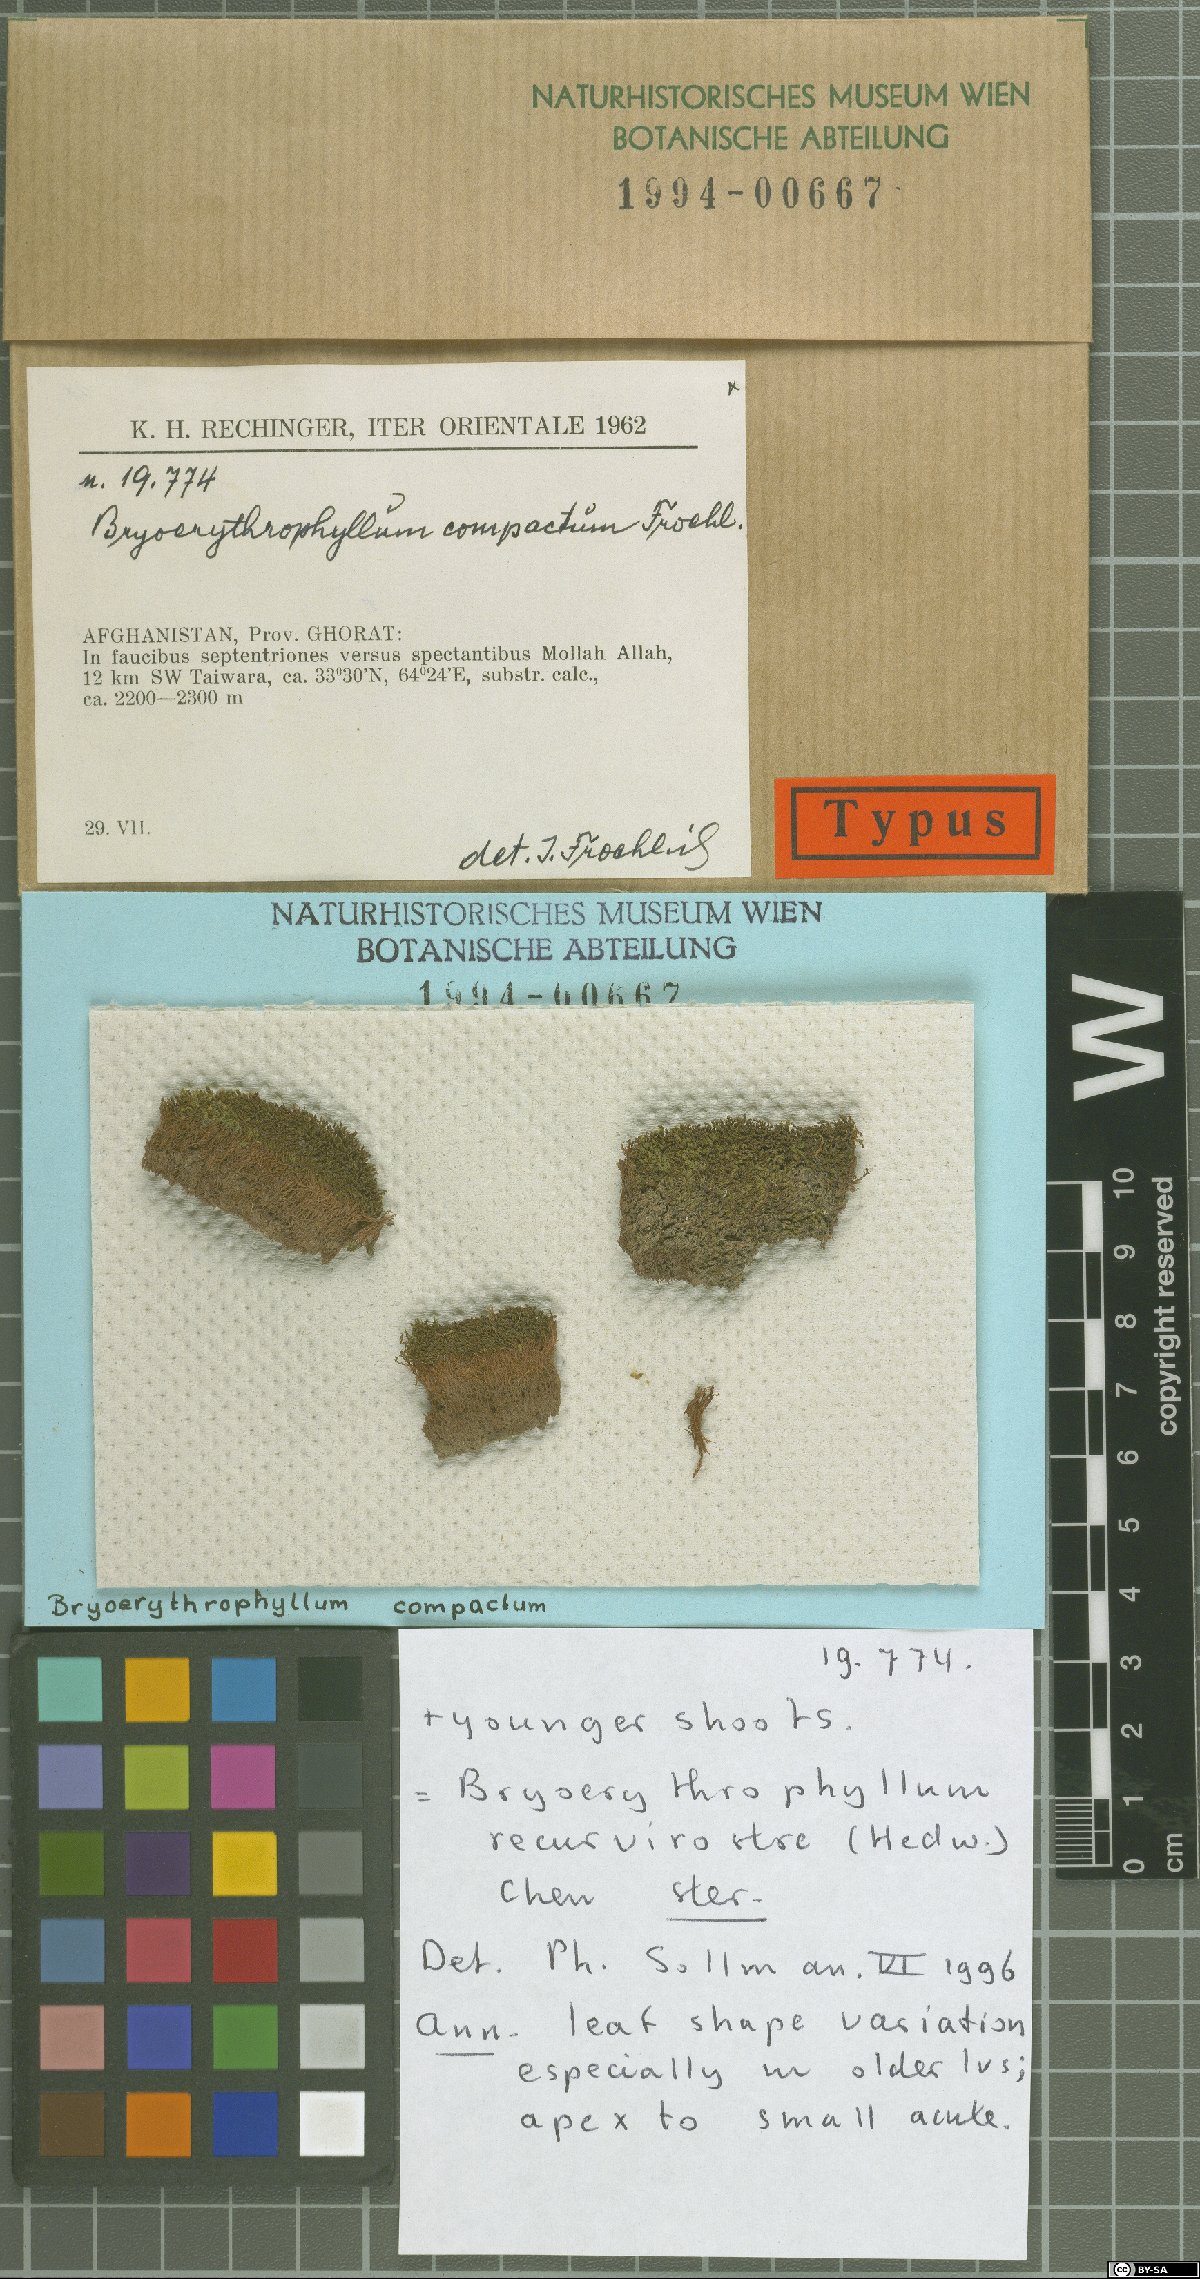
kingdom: Plantae
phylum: Bryophyta
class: Bryopsida
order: Pottiales
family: Pottiaceae
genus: Bryoerythrophyllum
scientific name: Bryoerythrophyllum rubrum
